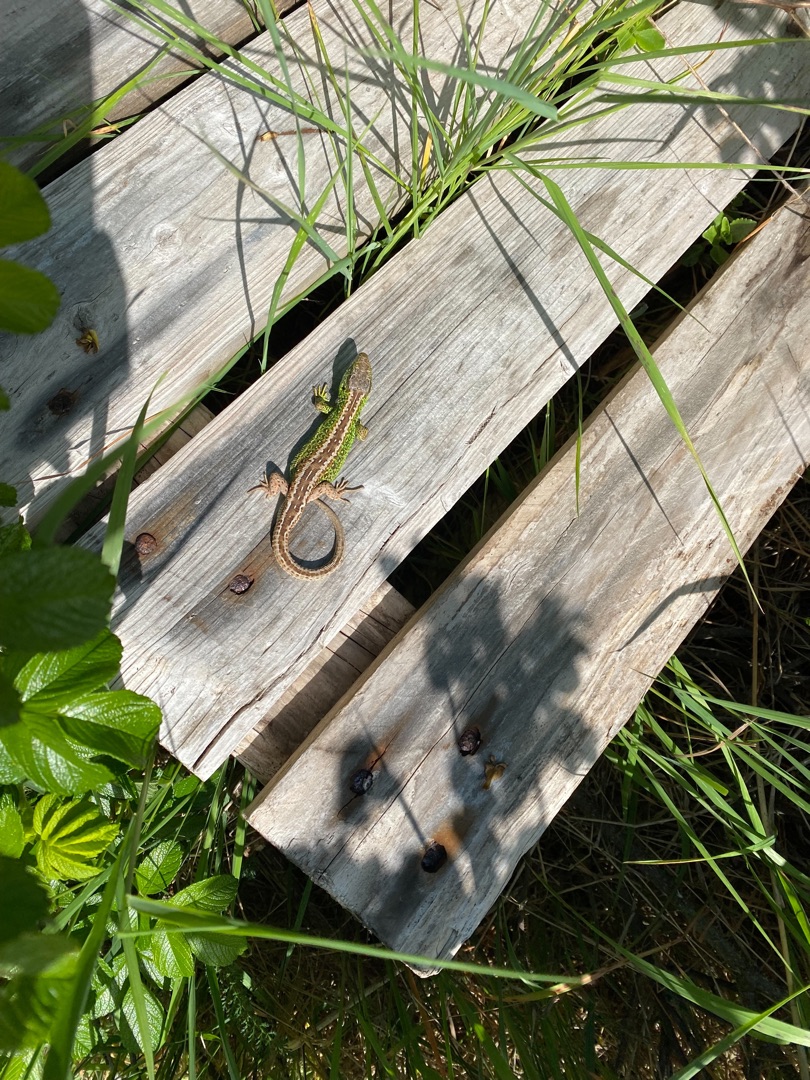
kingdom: Animalia
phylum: Chordata
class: Squamata
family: Lacertidae
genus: Lacerta
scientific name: Lacerta agilis
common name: Markfirben
